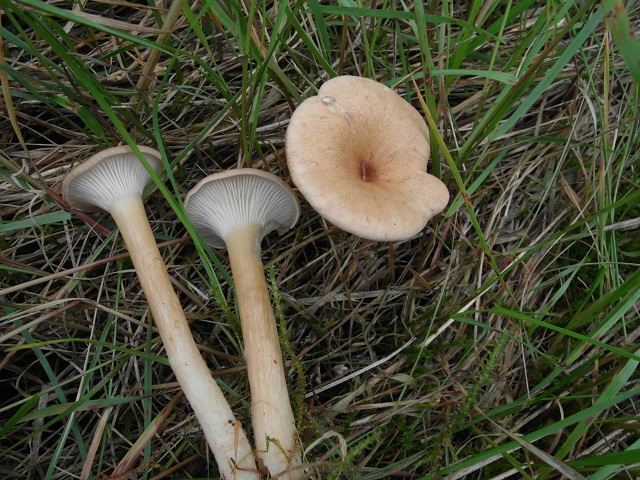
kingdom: Fungi
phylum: Basidiomycota
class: Agaricomycetes
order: Agaricales
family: Tricholomataceae
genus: Clitocybe
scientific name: Clitocybe costata
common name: brunstokket tragthat
